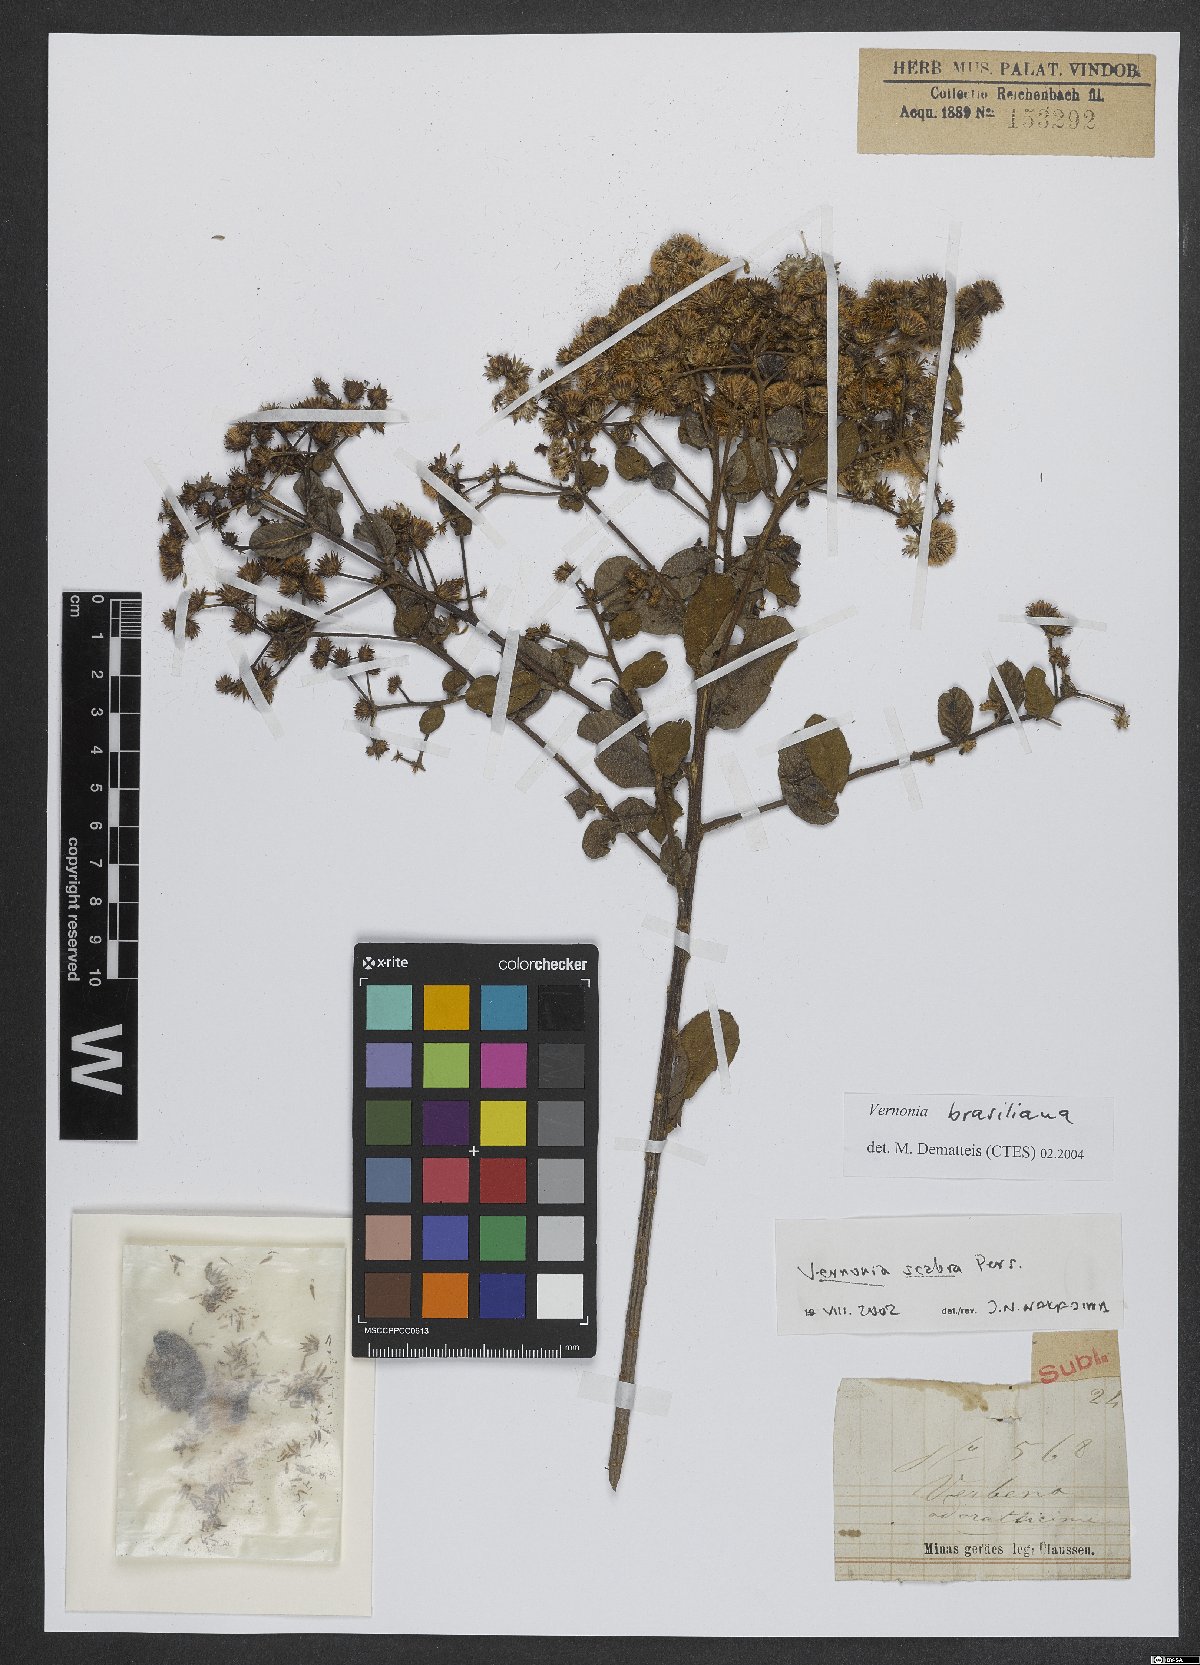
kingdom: Plantae
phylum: Tracheophyta
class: Magnoliopsida
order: Asterales
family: Asteraceae
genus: Vernonanthura
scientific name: Vernonanthura brasiliana
